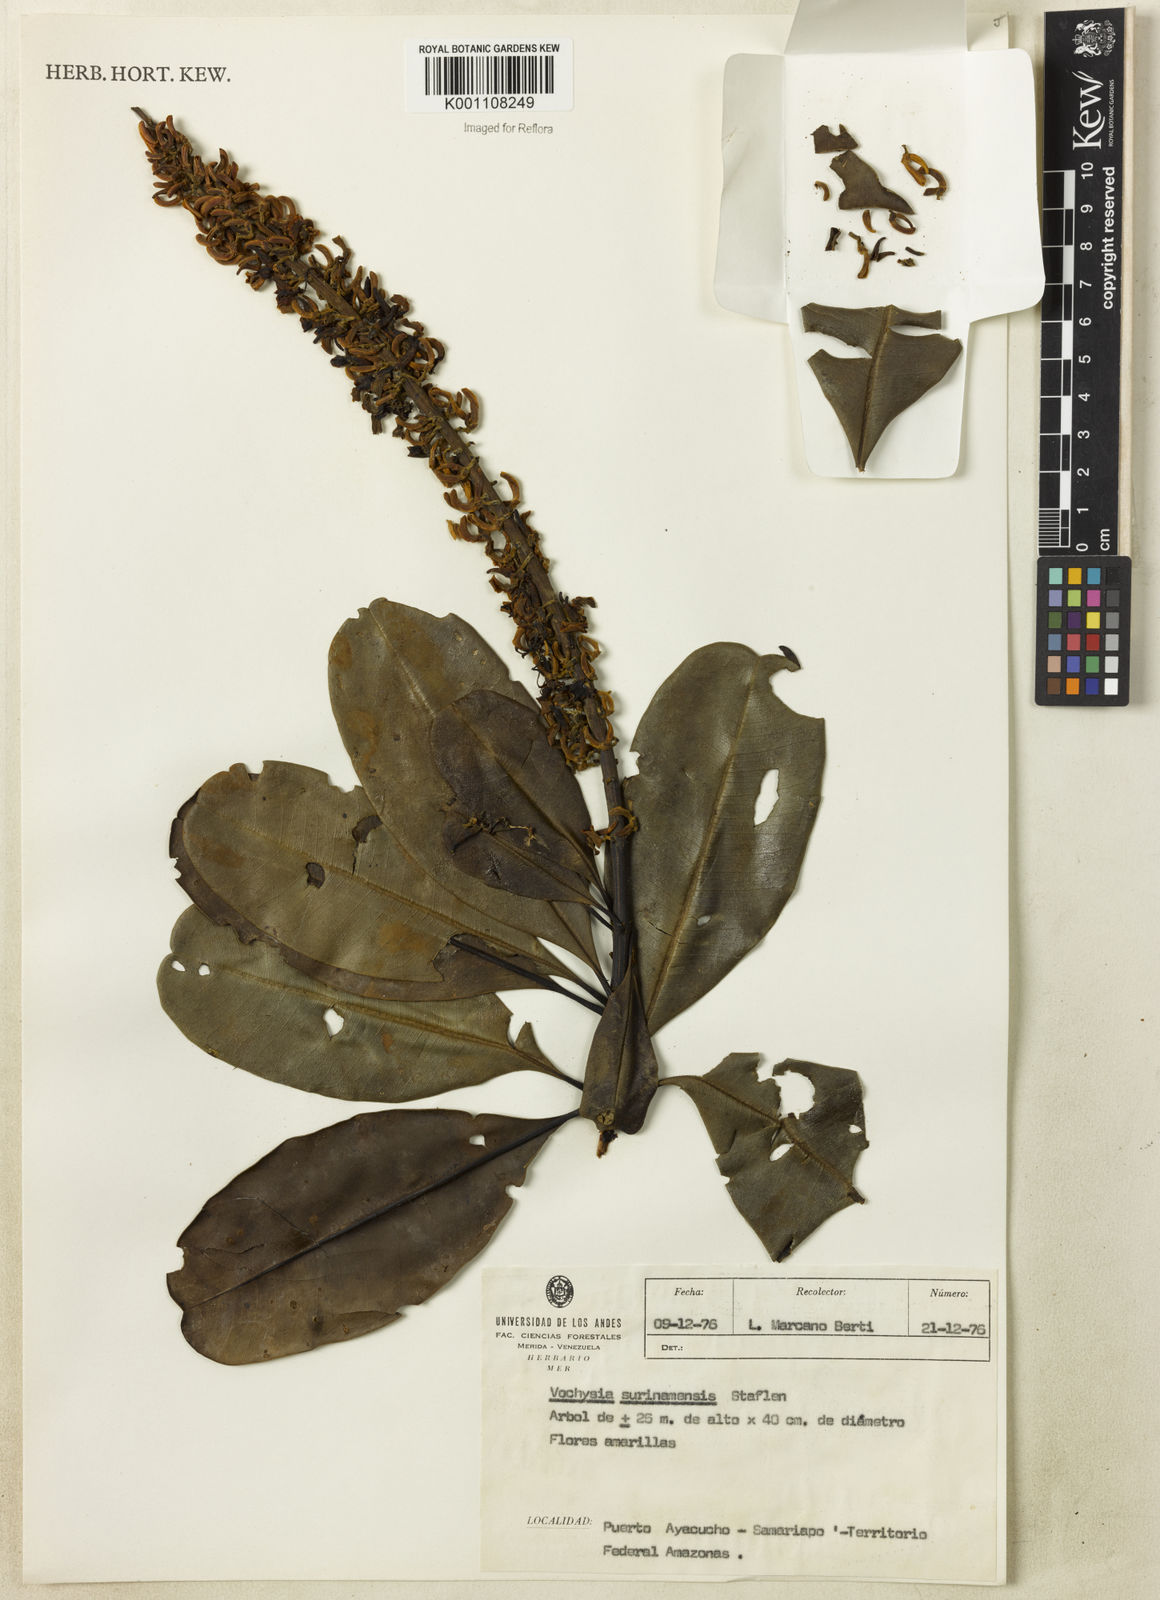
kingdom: Plantae
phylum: Tracheophyta
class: Magnoliopsida
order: Myrtales
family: Vochysiaceae
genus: Vochysia
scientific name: Vochysia surinamensis
